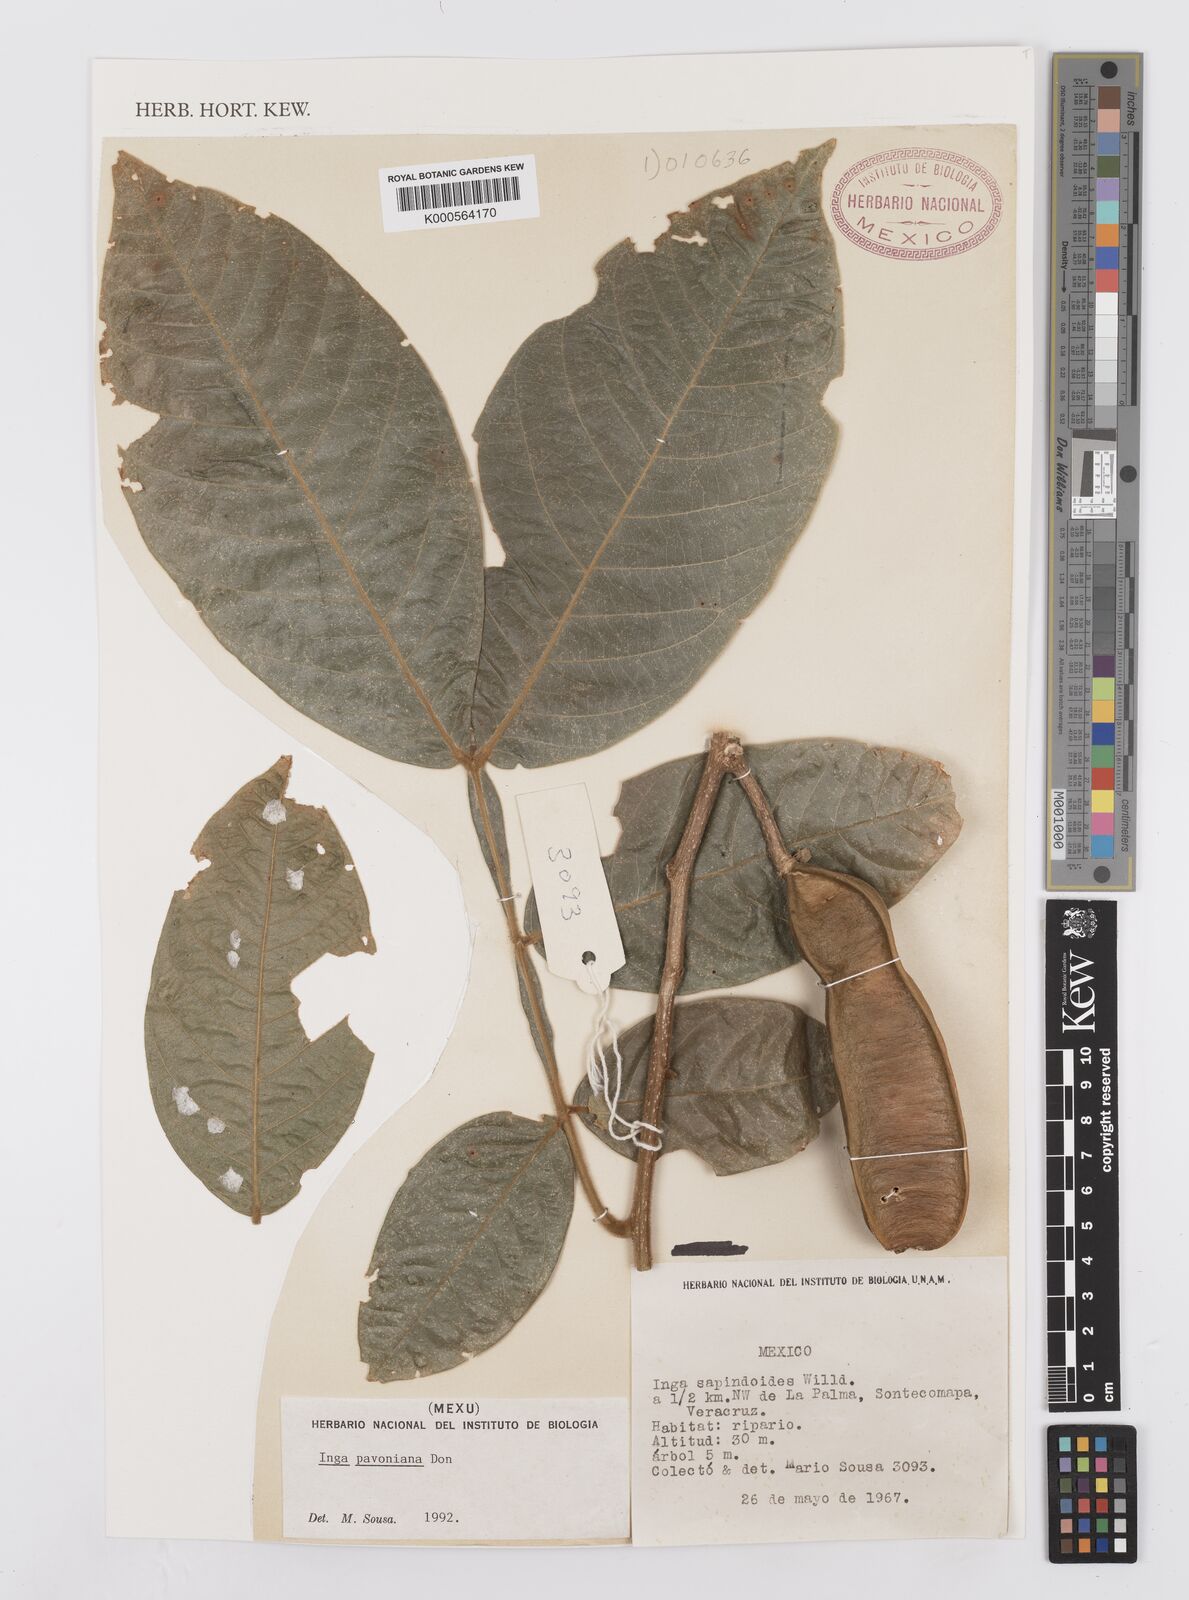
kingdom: Plantae
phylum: Tracheophyta
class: Magnoliopsida
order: Fabales
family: Fabaceae
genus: Inga
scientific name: Inga sapindoides
